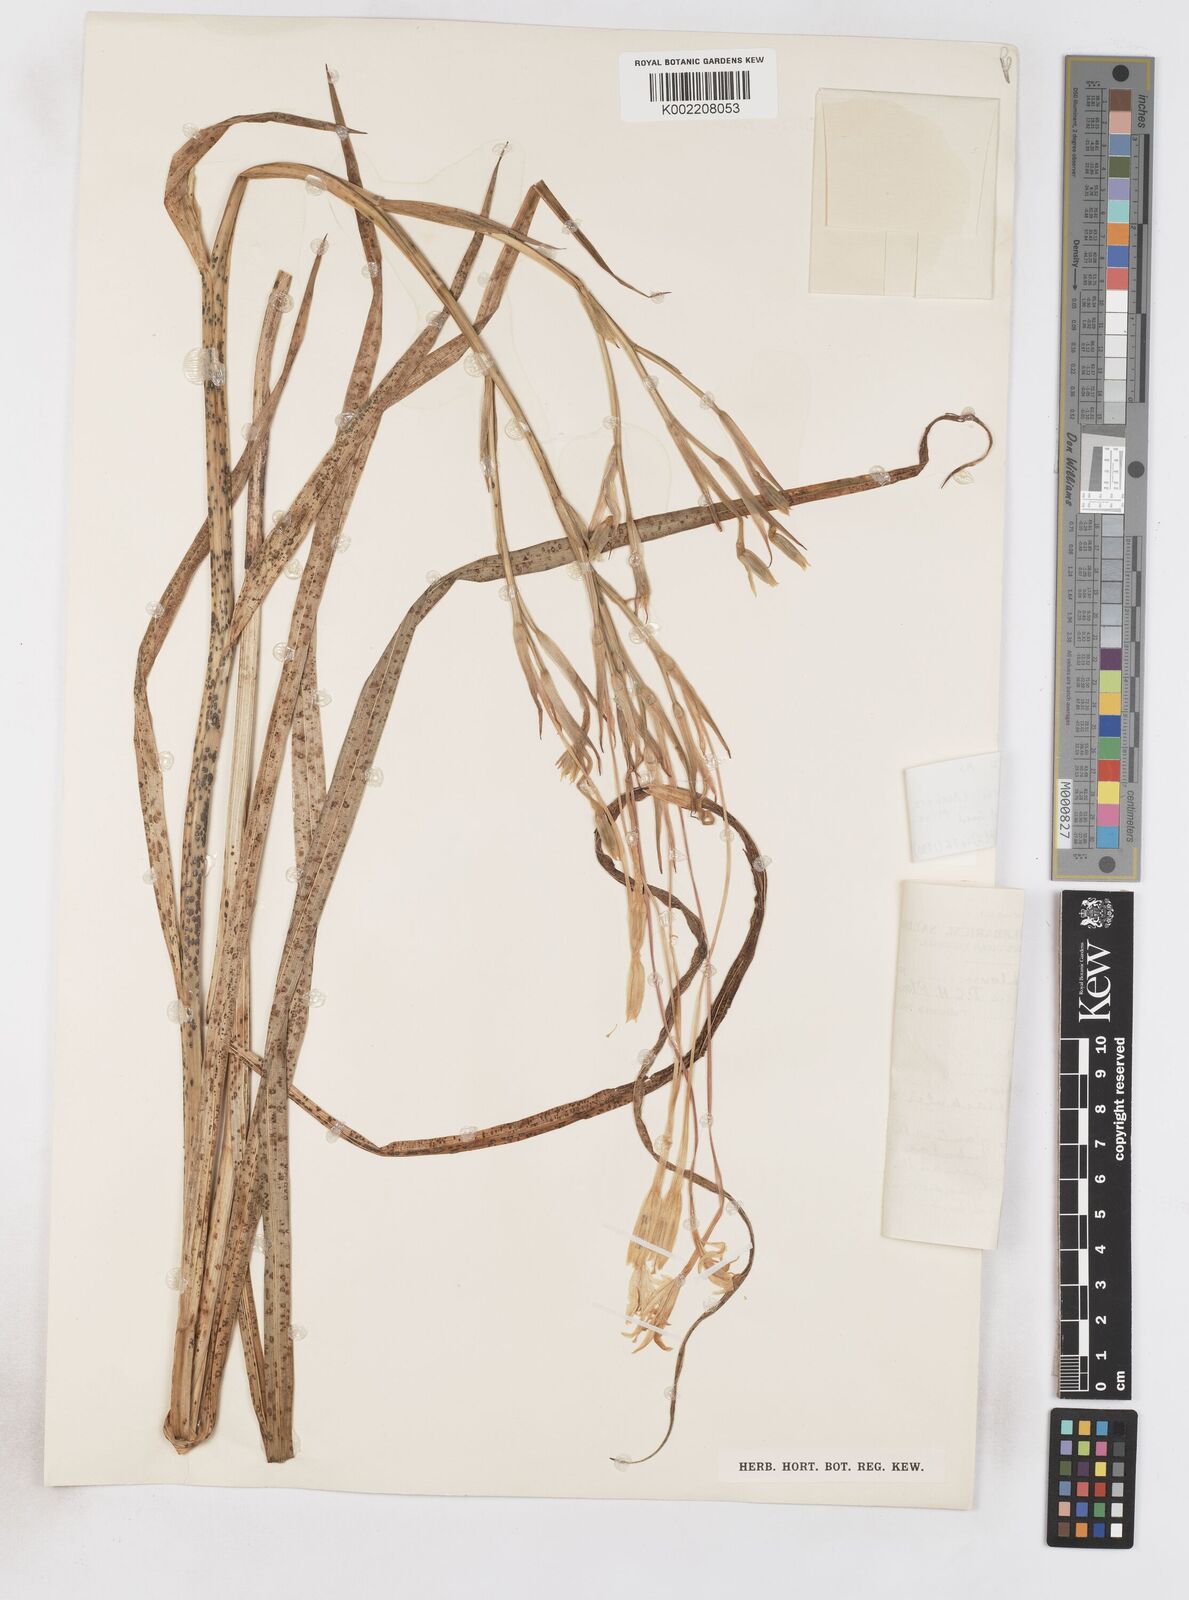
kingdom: Plantae
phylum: Tracheophyta
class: Liliopsida
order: Asparagales
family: Iridaceae
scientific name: Iridaceae
